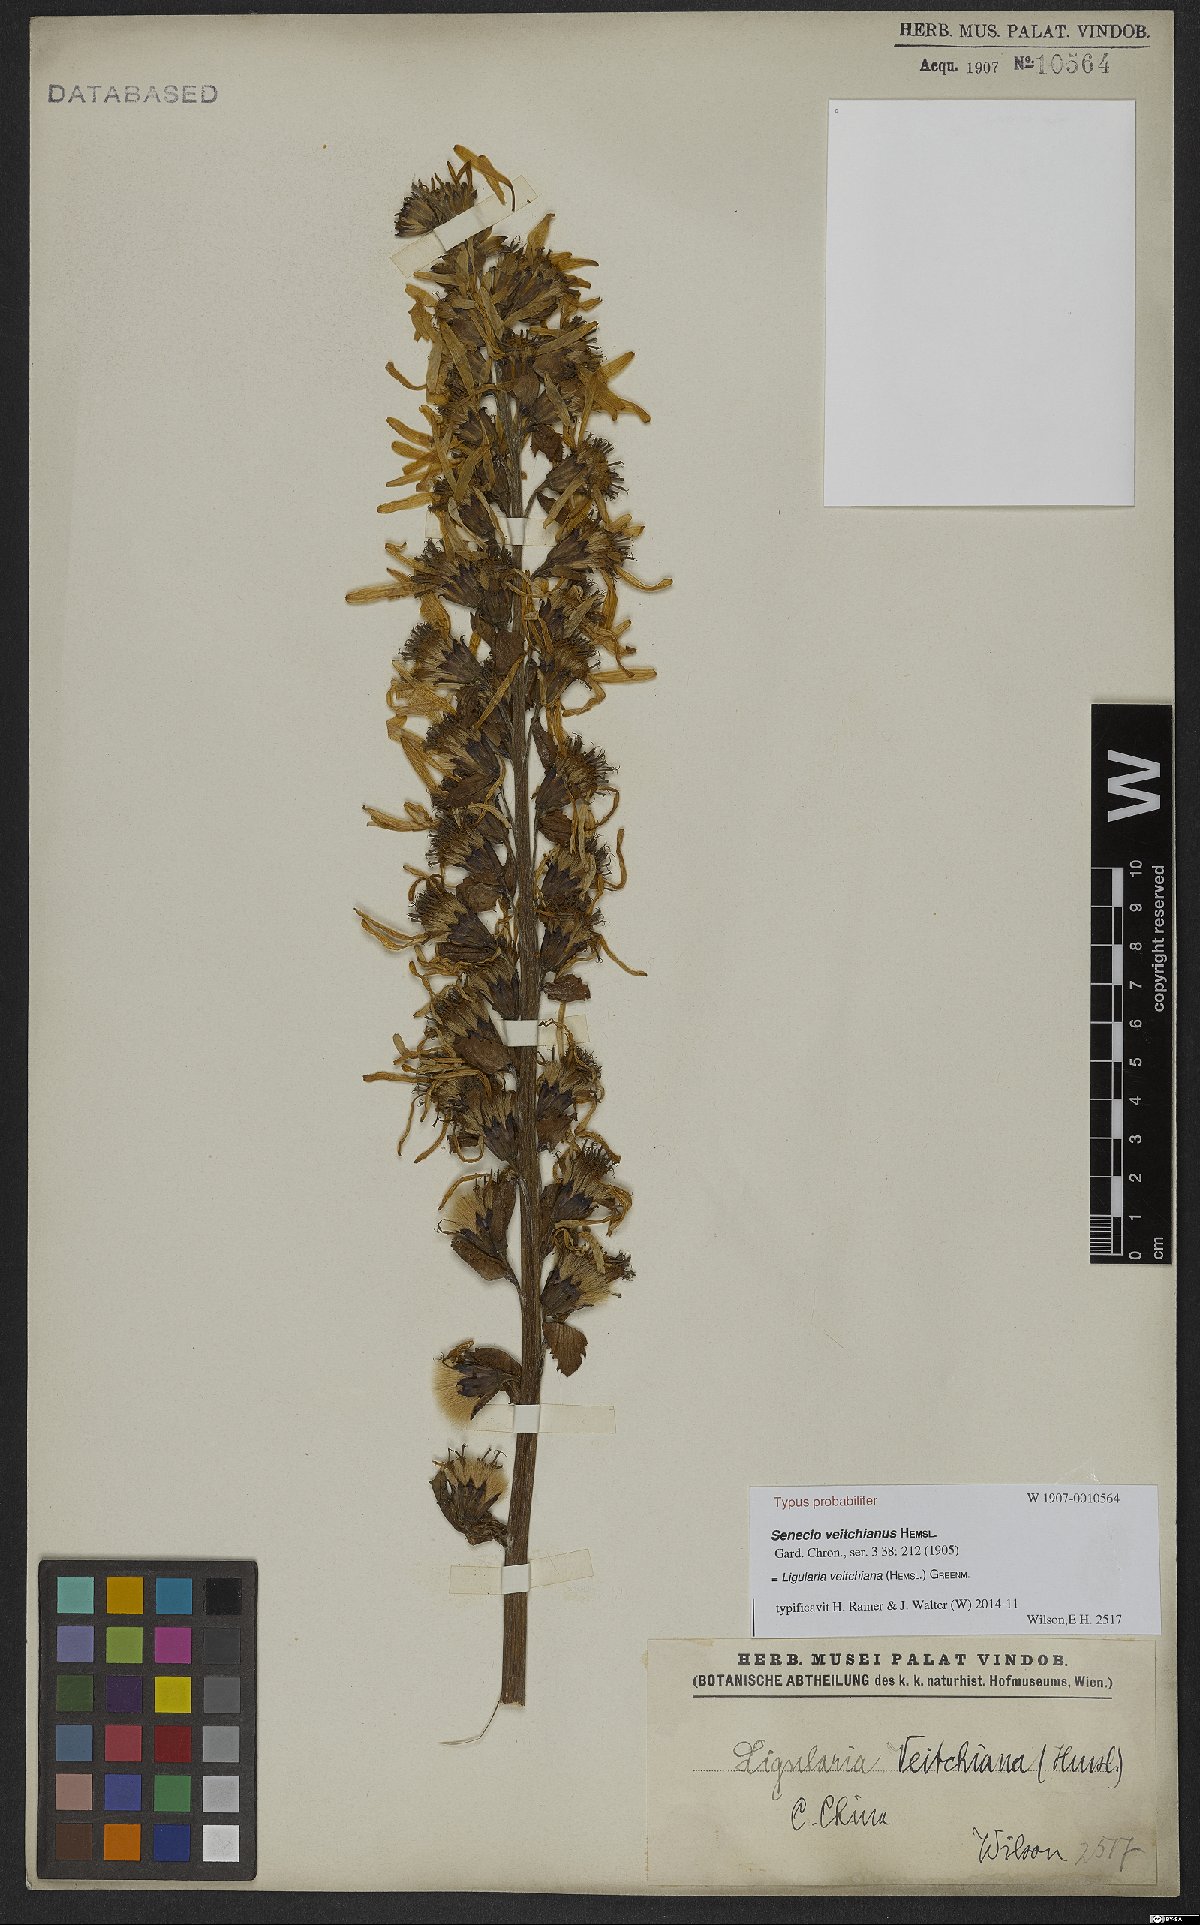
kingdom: Plantae
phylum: Tracheophyta
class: Magnoliopsida
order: Asterales
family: Asteraceae
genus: Ligularia
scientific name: Ligularia veitchiana
